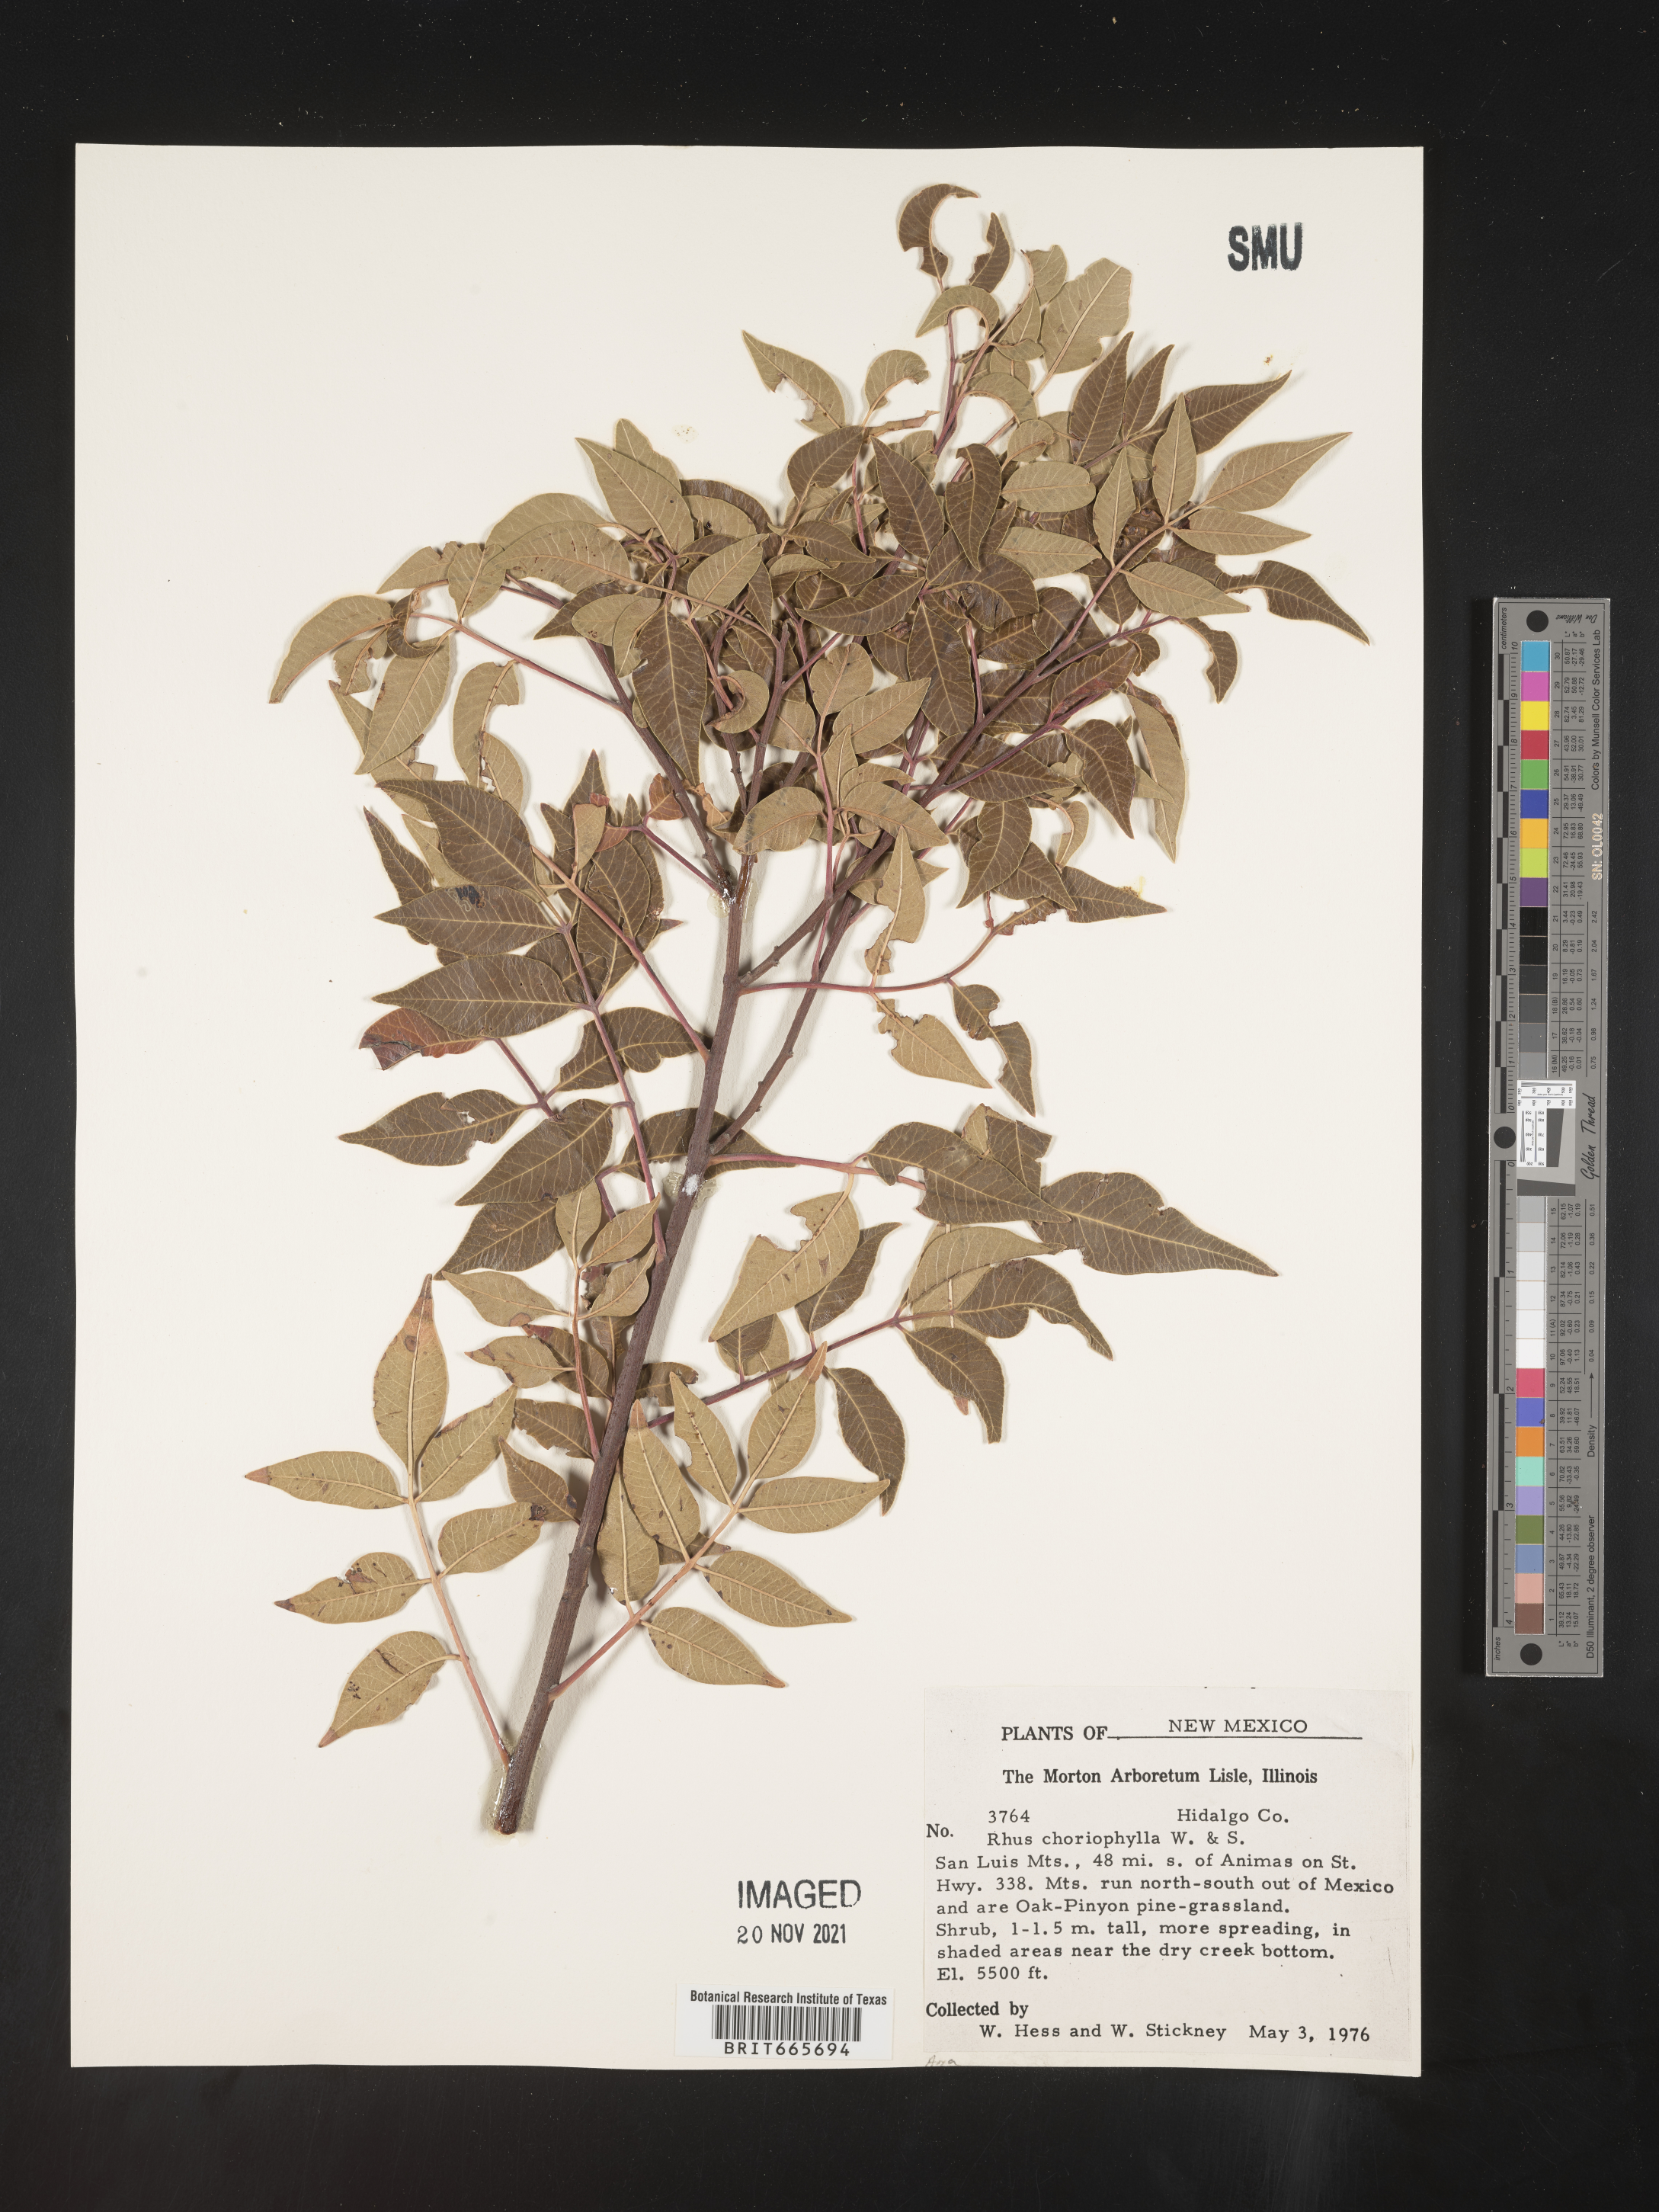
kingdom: Plantae
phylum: Tracheophyta
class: Magnoliopsida
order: Sapindales
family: Anacardiaceae
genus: Rhus
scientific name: Rhus
